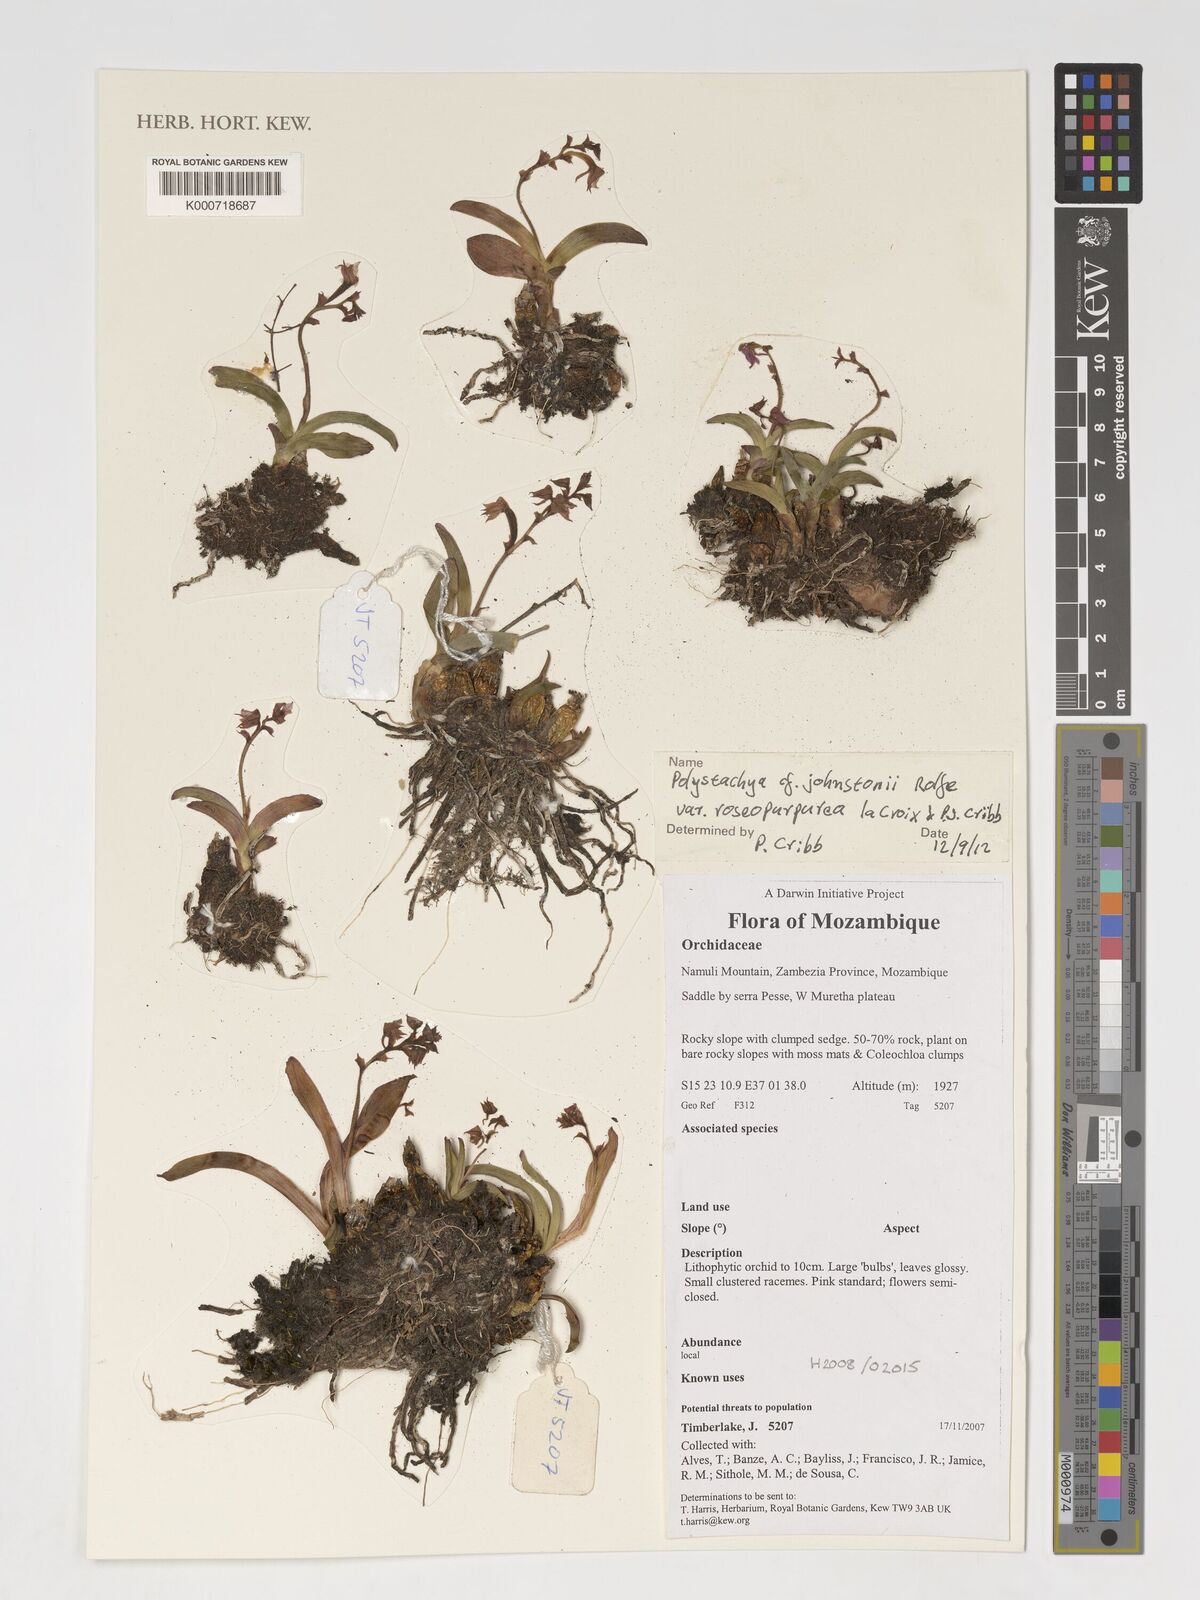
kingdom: Plantae
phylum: Tracheophyta
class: Liliopsida
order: Asparagales
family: Orchidaceae
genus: Polystachya
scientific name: Polystachya johnstonii
